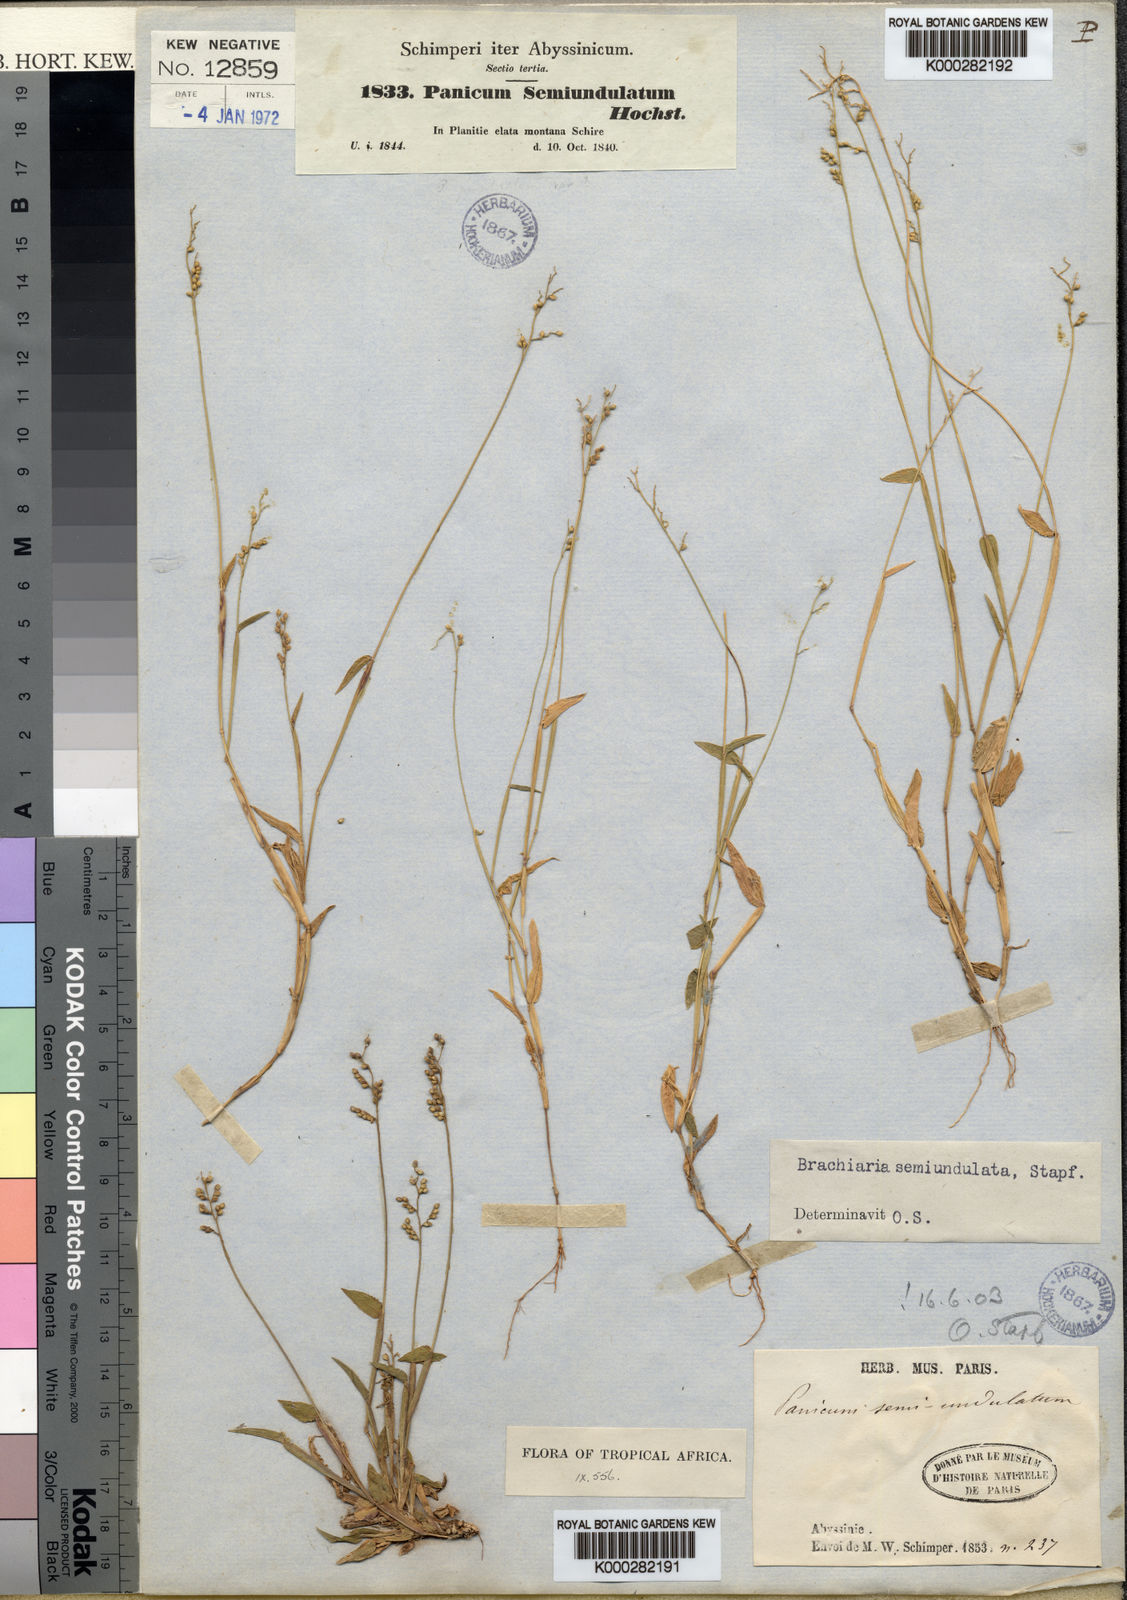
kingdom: Plantae
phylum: Tracheophyta
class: Liliopsida
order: Poales
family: Poaceae
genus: Urochloa
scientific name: Urochloa semiundulata
